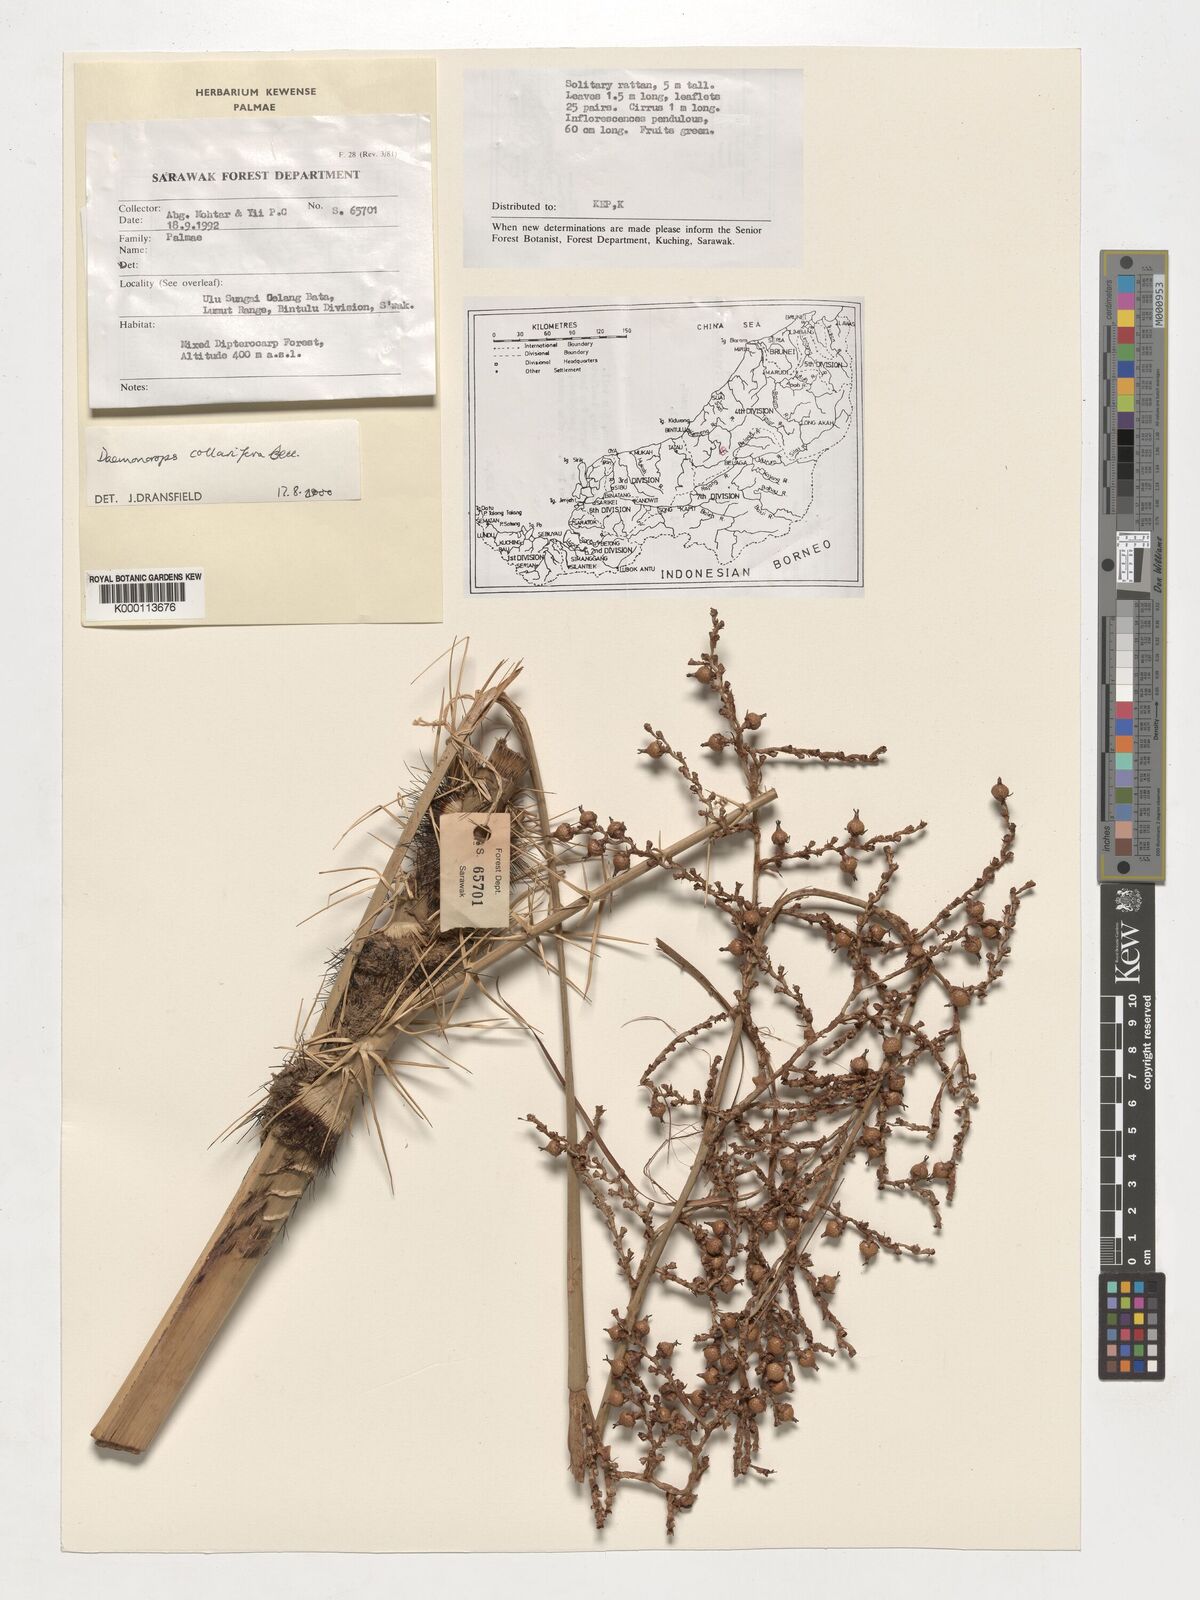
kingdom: Plantae
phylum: Tracheophyta
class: Liliopsida
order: Arecales
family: Arecaceae
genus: Calamus
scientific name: Calamus geniculatus
